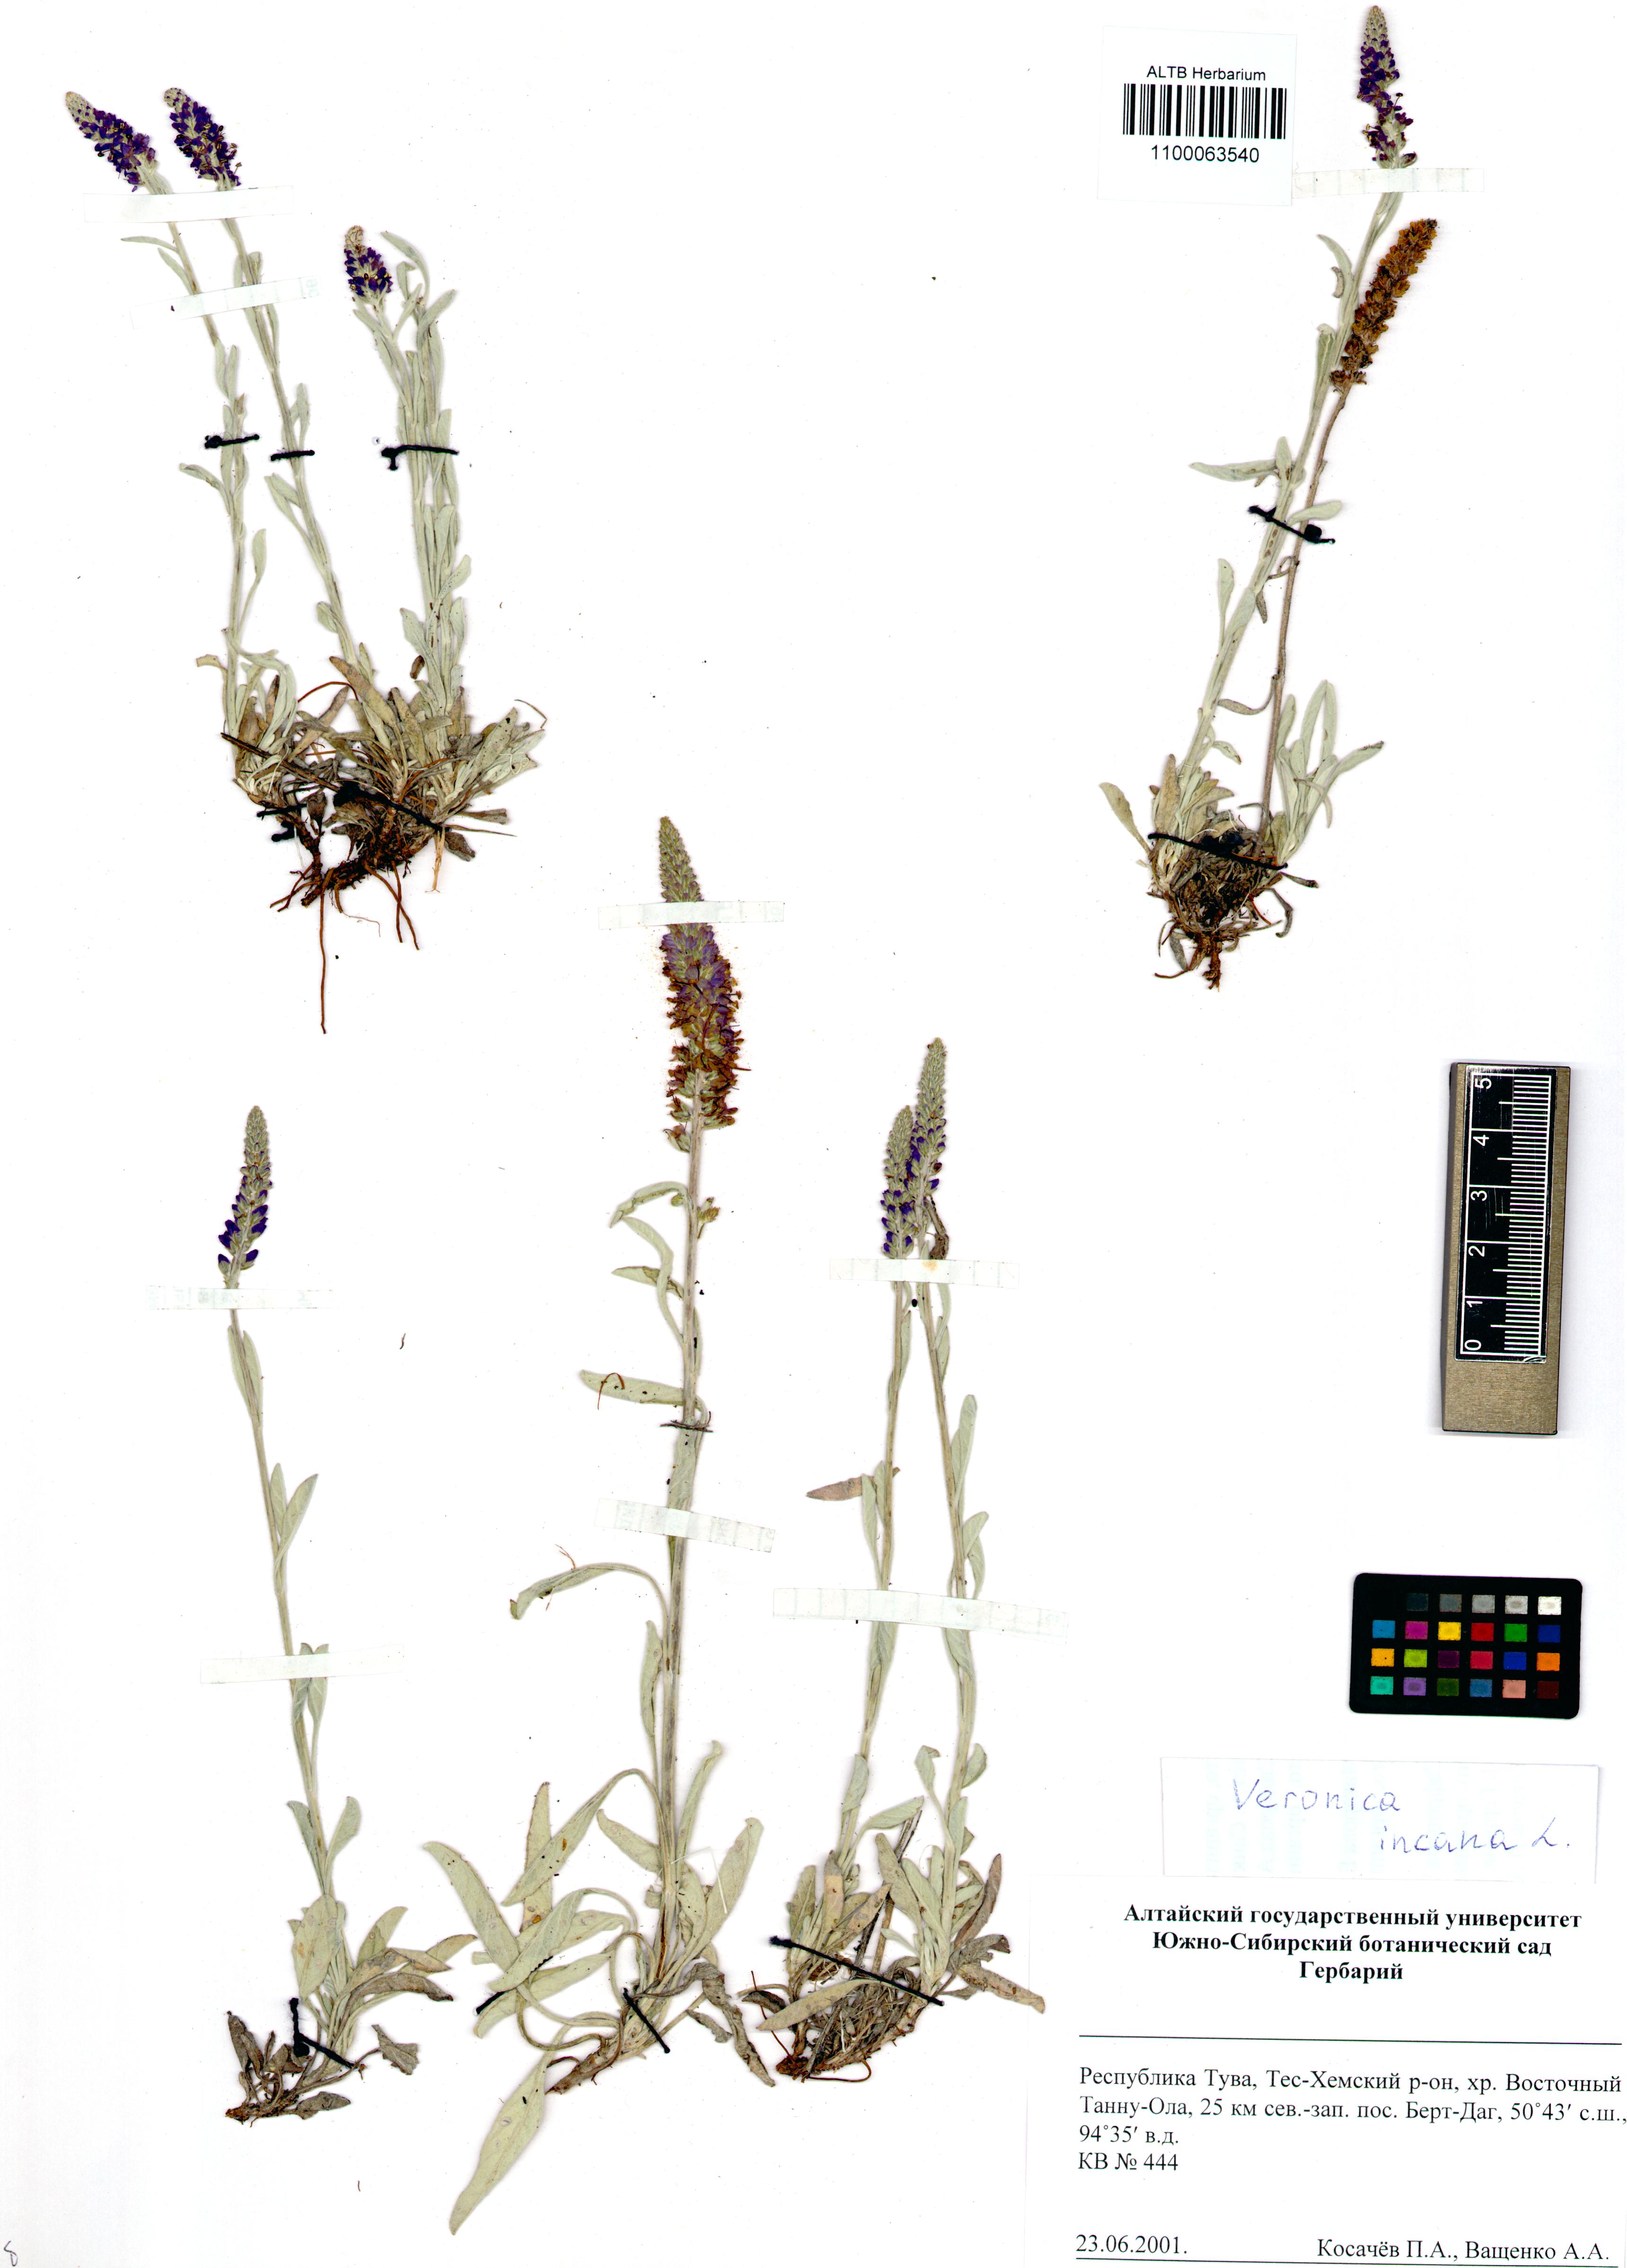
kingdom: Plantae
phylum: Tracheophyta
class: Magnoliopsida
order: Lamiales
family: Plantaginaceae
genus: Veronica
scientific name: Veronica incana
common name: Silver speedwell
